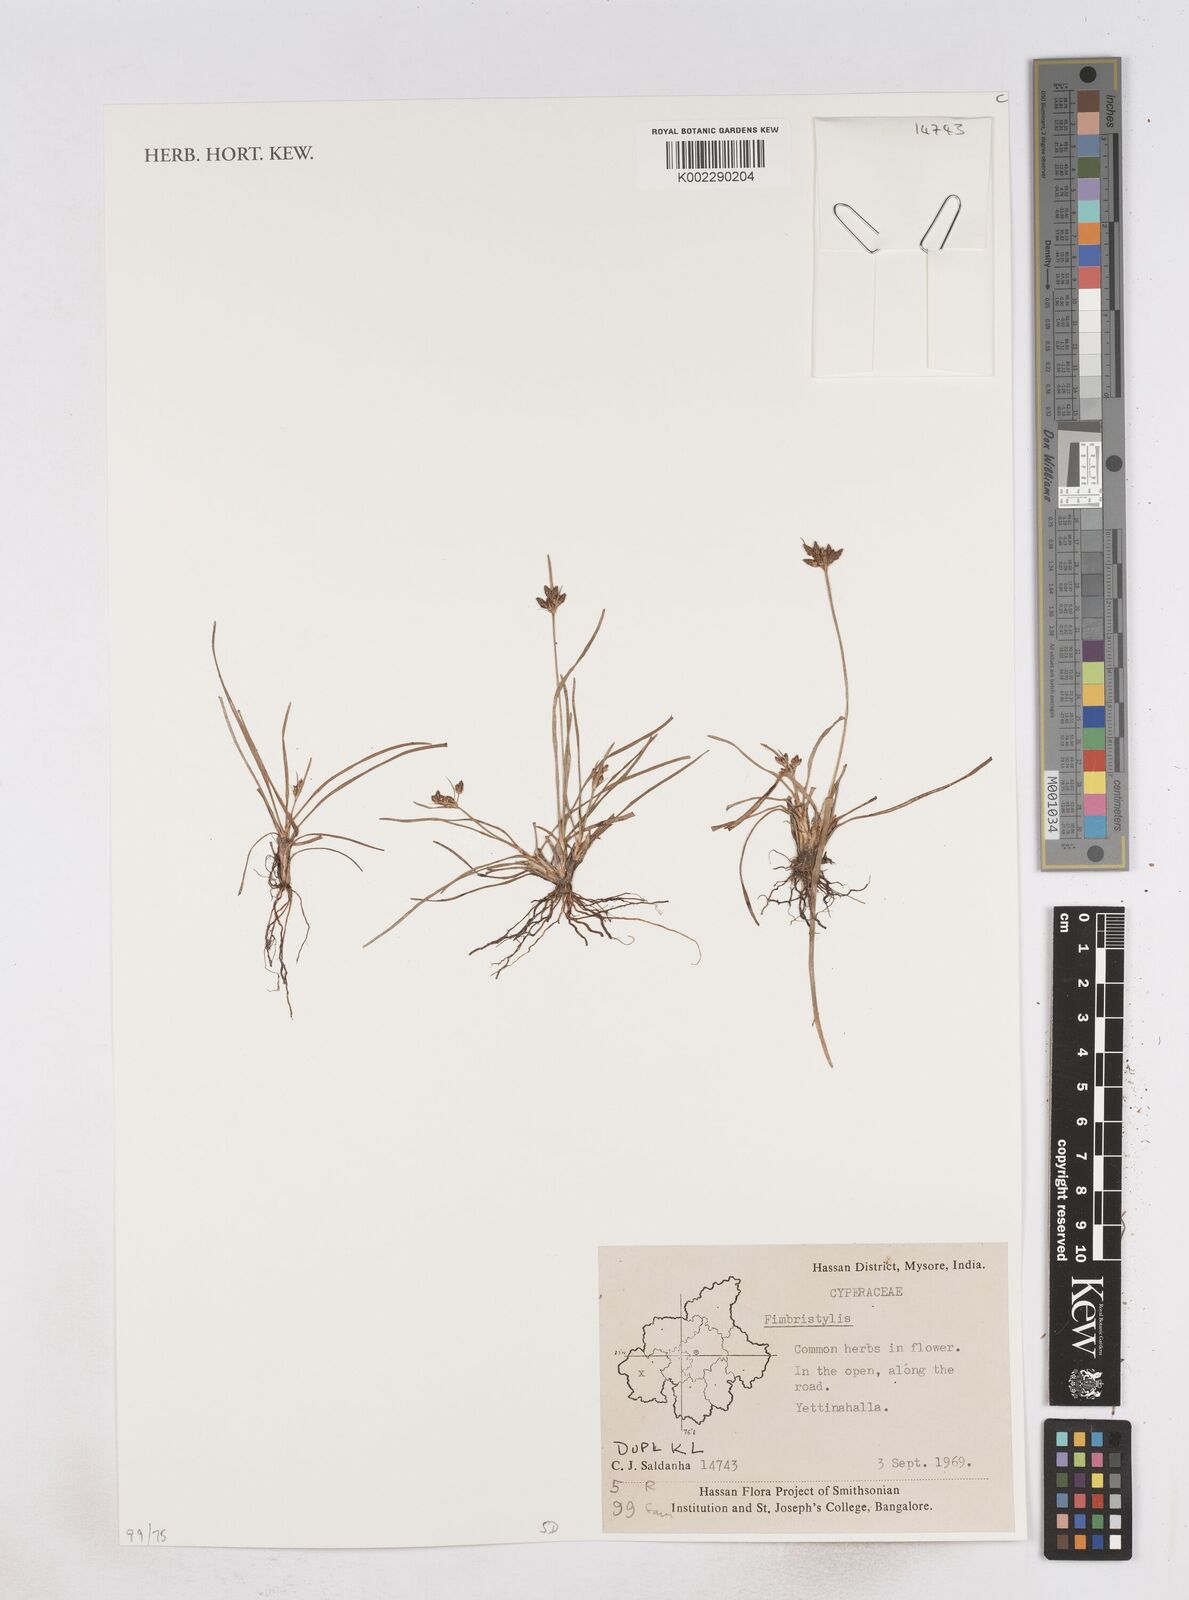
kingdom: Plantae
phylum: Tracheophyta
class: Liliopsida
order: Poales
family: Cyperaceae
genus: Fimbristylis
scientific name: Fimbristylis
